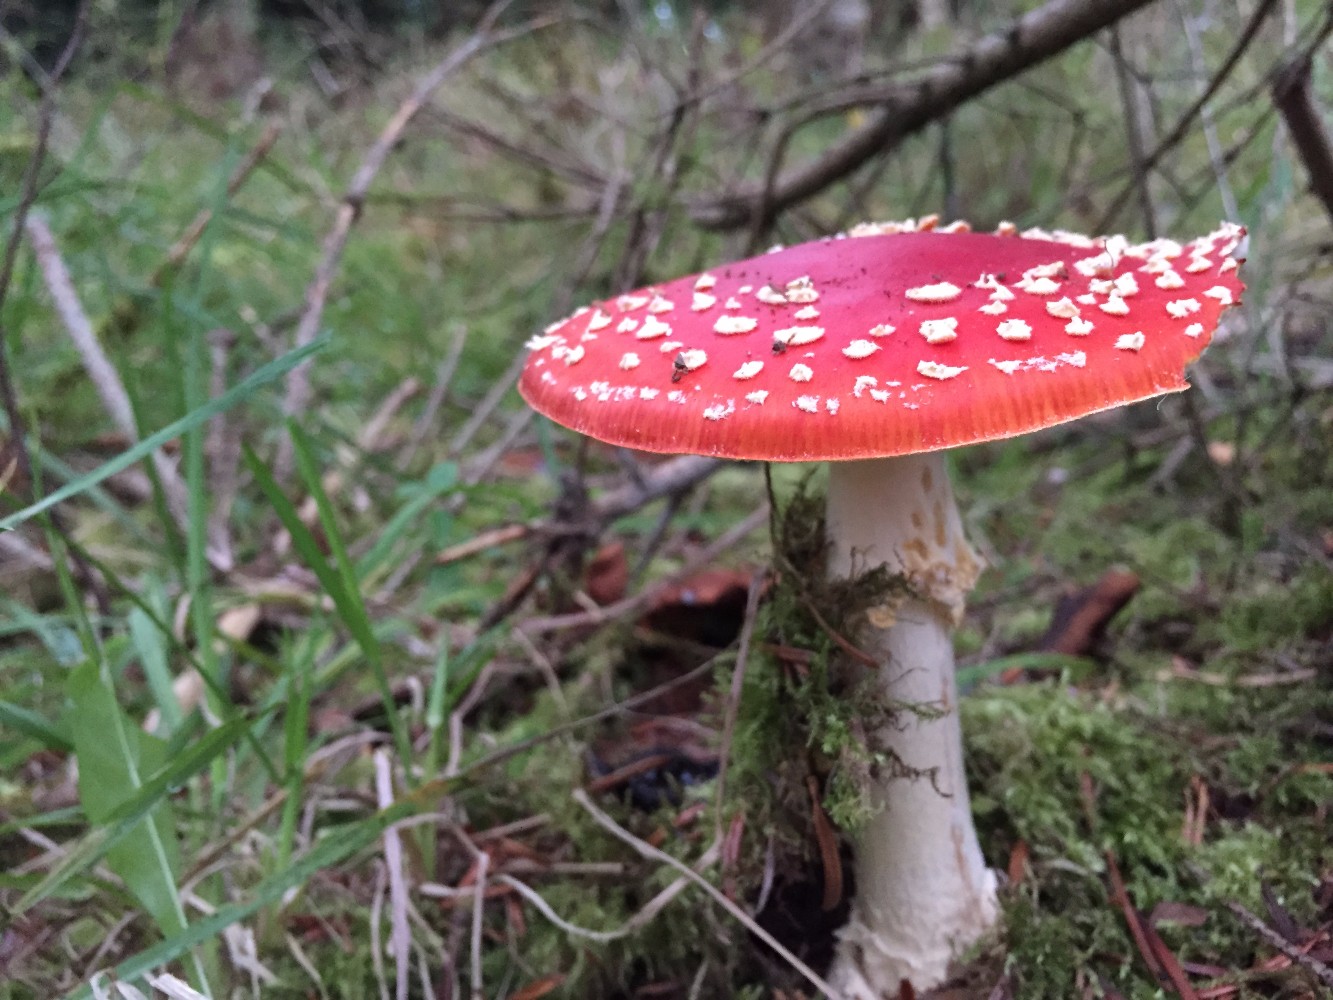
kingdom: Fungi
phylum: Basidiomycota
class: Agaricomycetes
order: Agaricales
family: Amanitaceae
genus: Amanita
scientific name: Amanita muscaria
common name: rød fluesvamp
